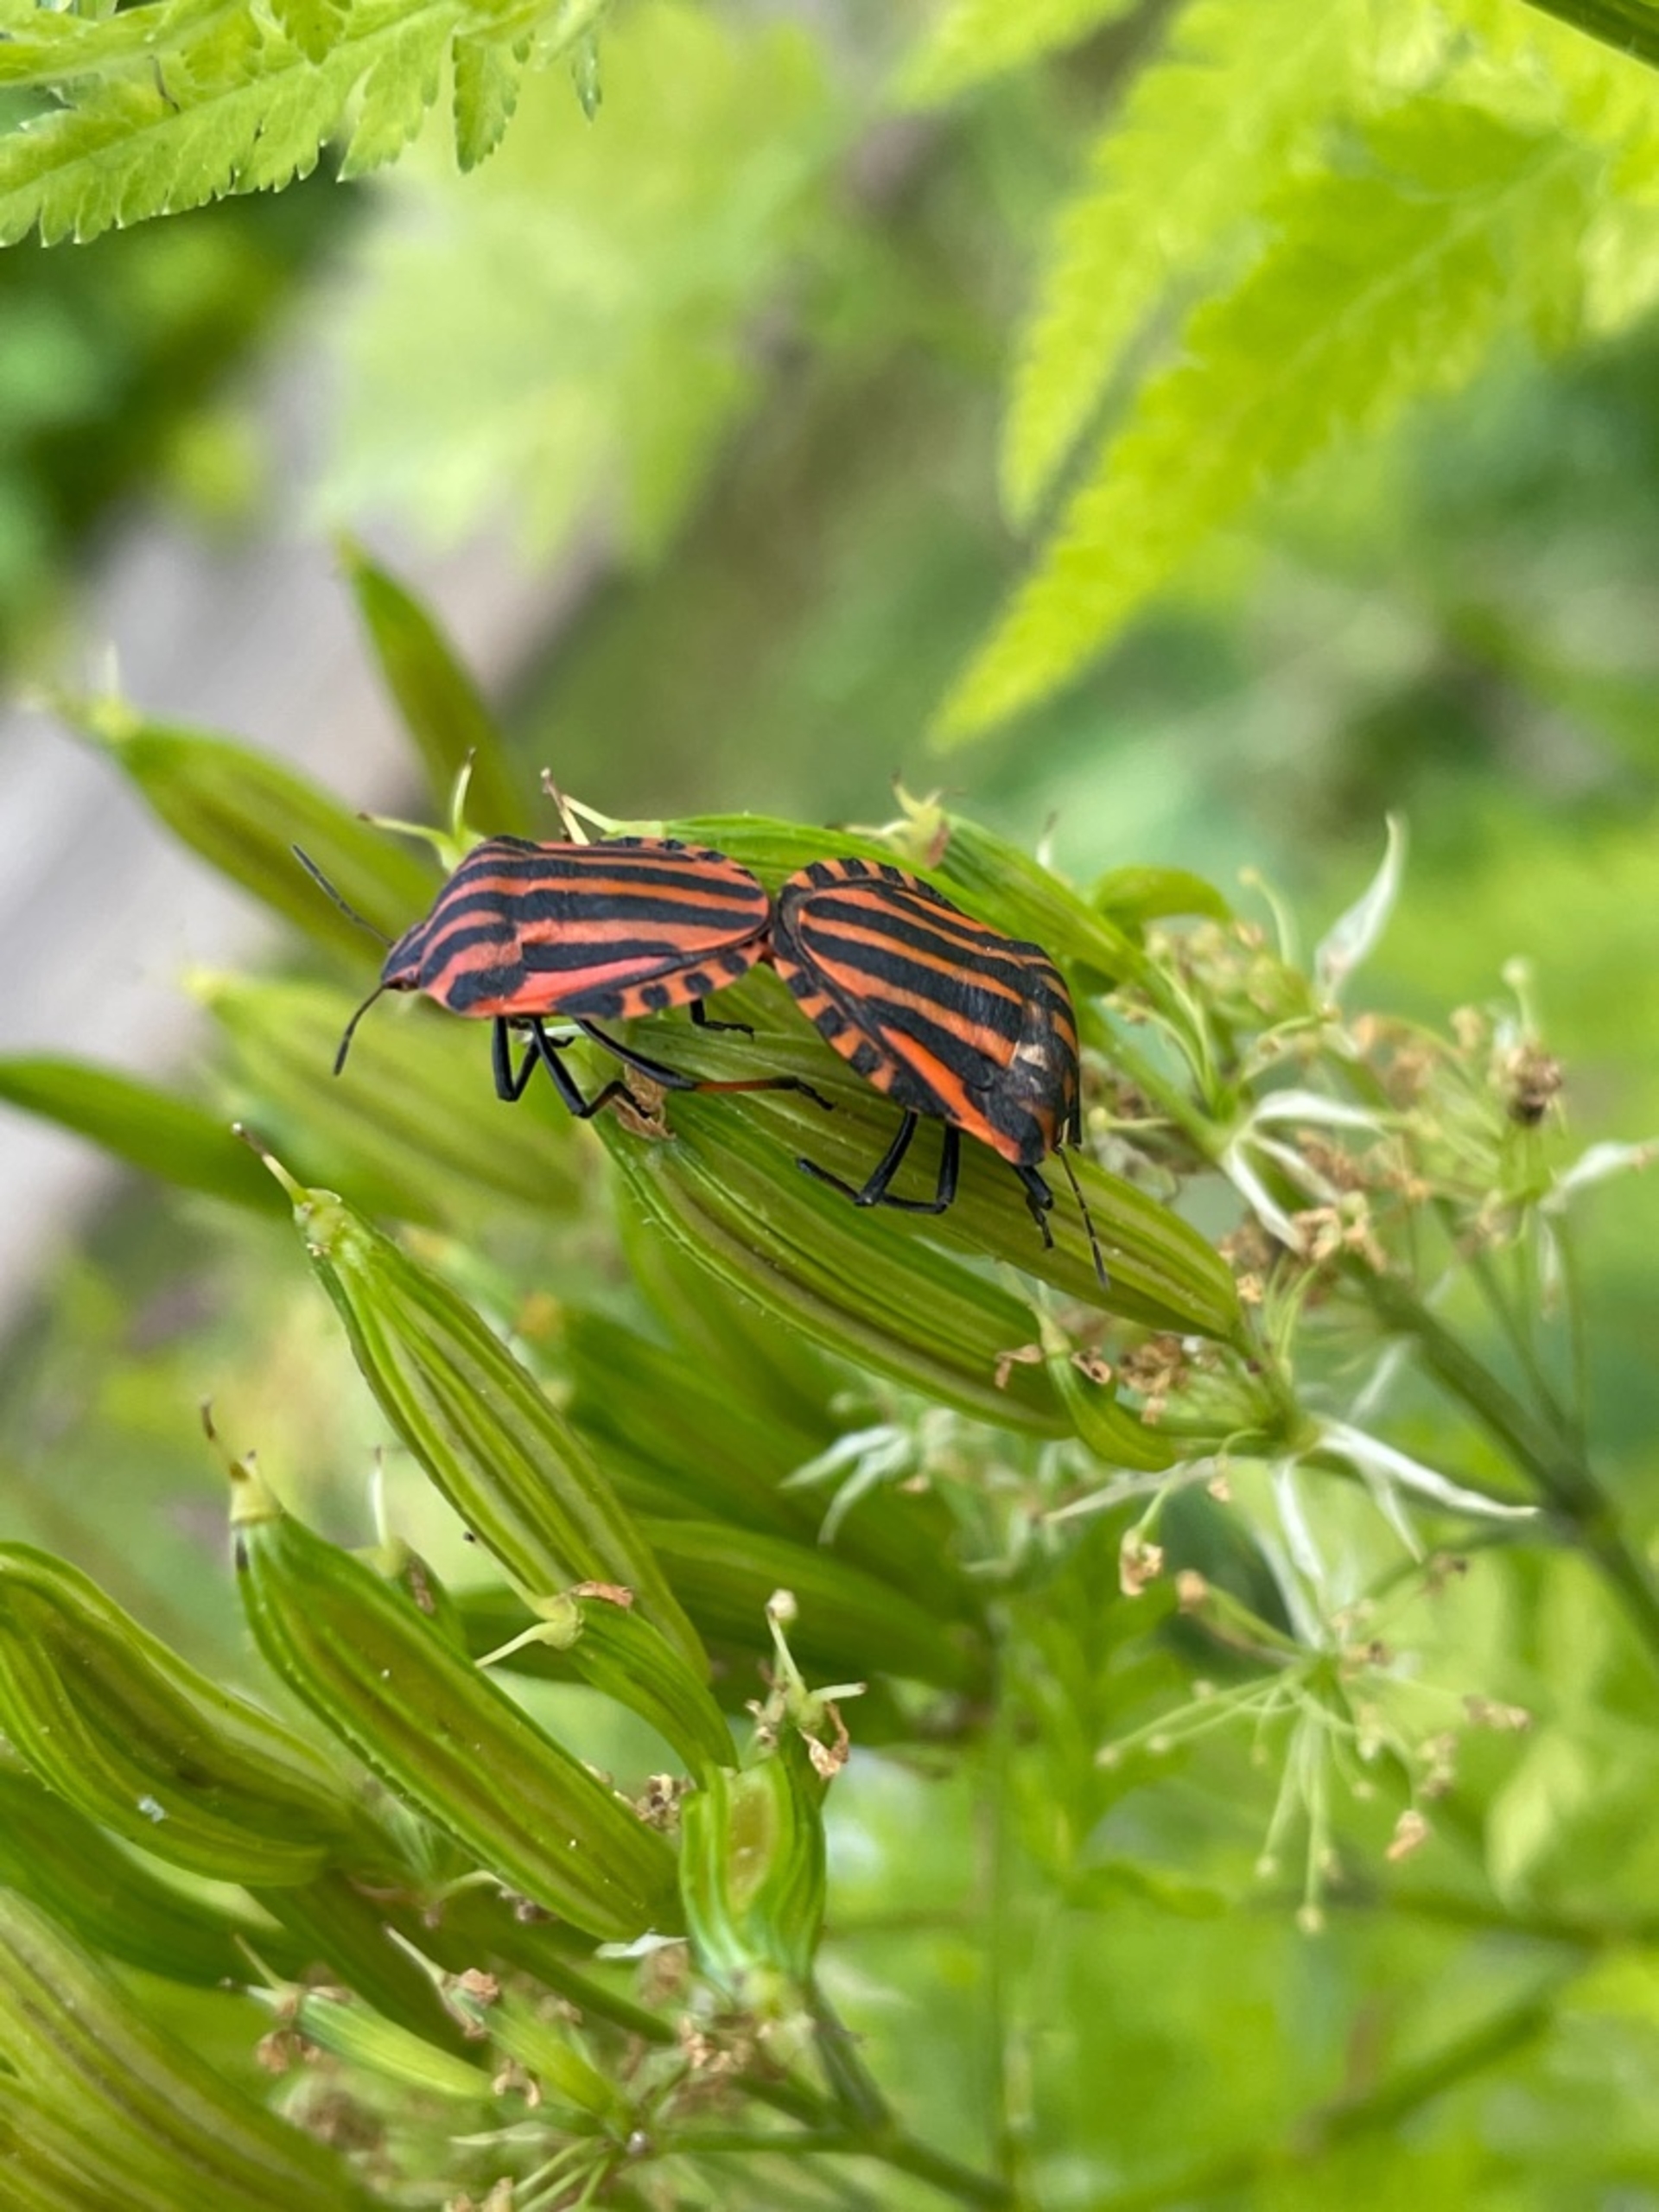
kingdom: Animalia
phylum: Arthropoda
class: Insecta
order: Hemiptera
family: Pentatomidae
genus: Graphosoma
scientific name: Graphosoma italicum
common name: Stribetæge
